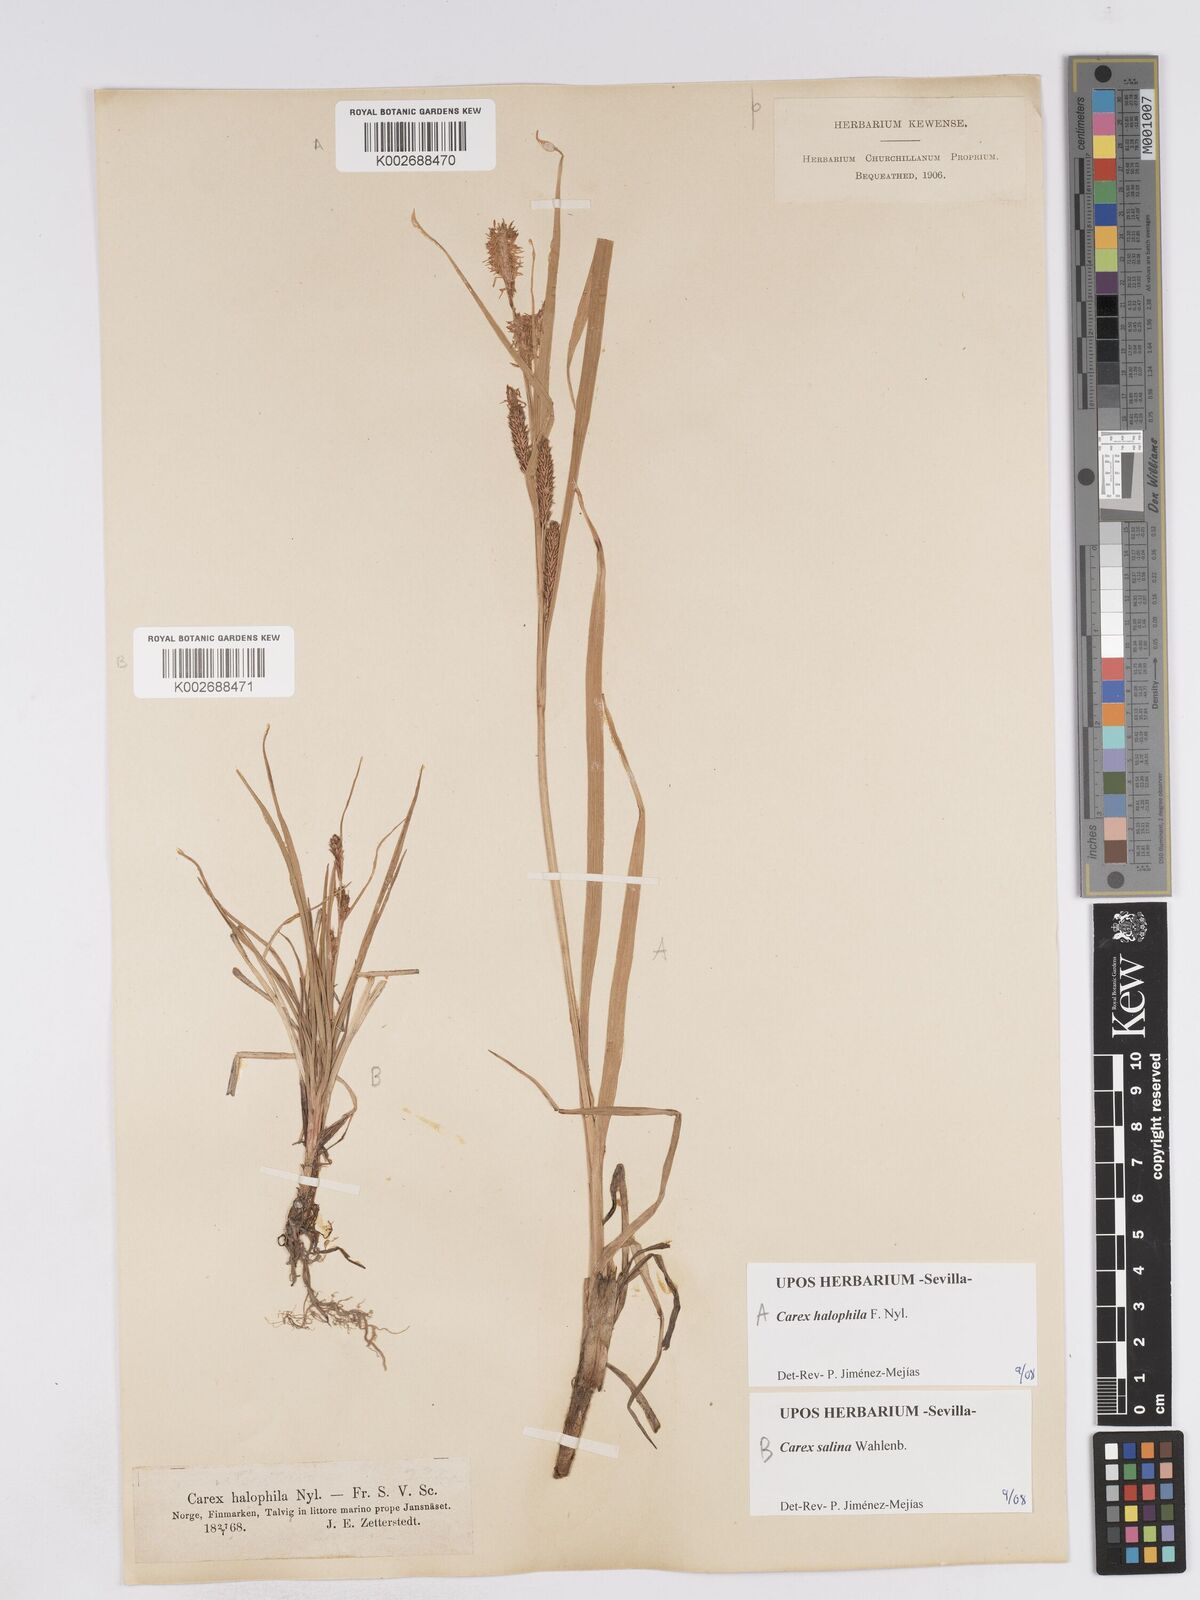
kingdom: Plantae
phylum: Tracheophyta
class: Liliopsida
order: Poales
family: Cyperaceae
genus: Carex
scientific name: Carex salina
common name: Saltmarsh sedge
